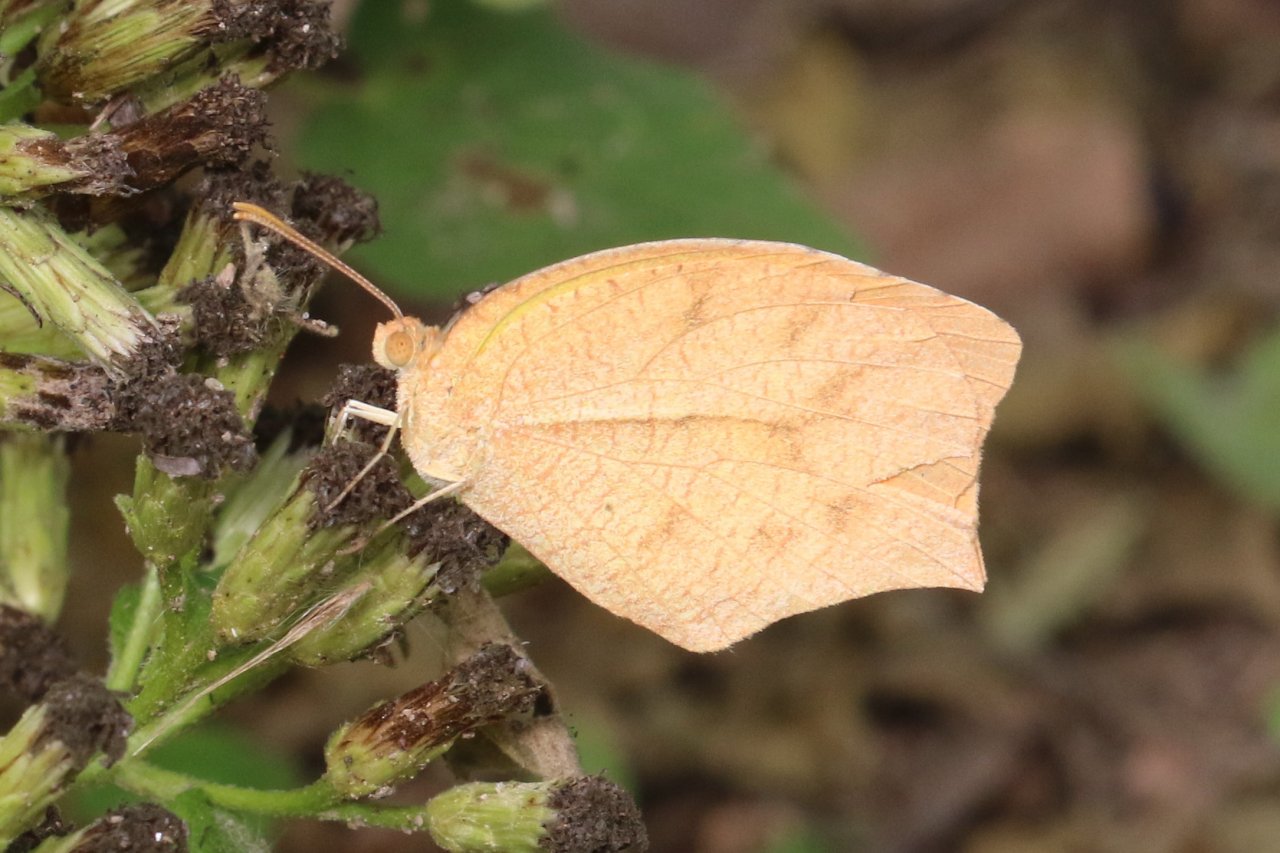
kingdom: Animalia
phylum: Arthropoda
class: Insecta
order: Lepidoptera
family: Pieridae
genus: Pyrisitia
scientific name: Pyrisitia proterpia
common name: Tailed Orange
